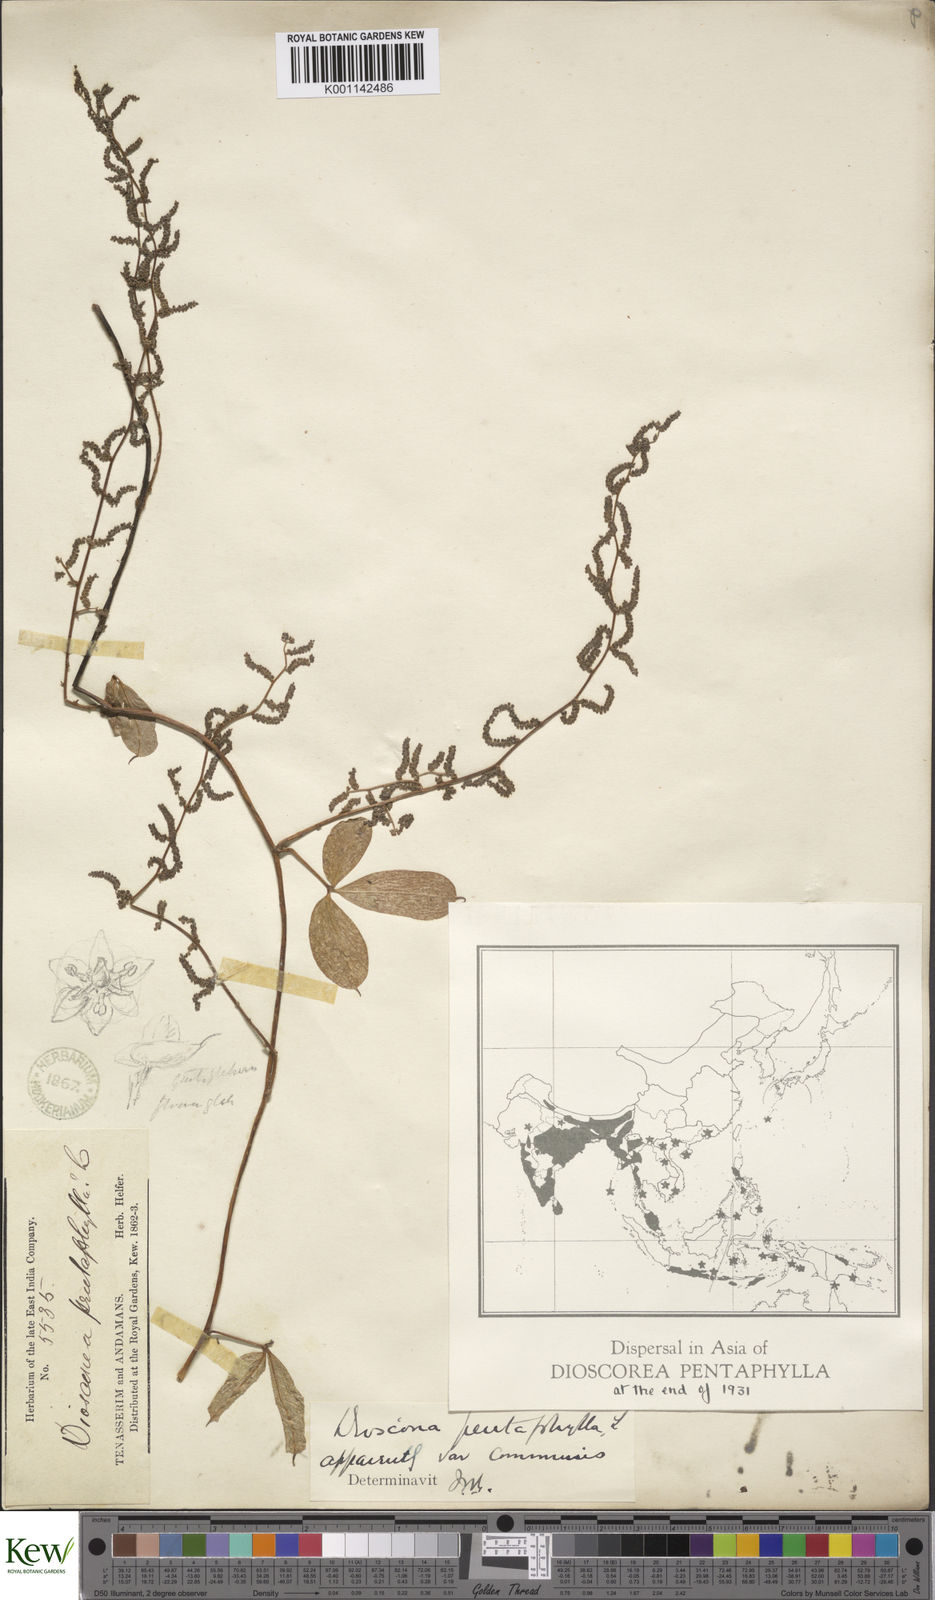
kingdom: Plantae
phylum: Tracheophyta
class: Liliopsida
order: Dioscoreales
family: Dioscoreaceae
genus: Dioscorea
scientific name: Dioscorea pentaphylla
